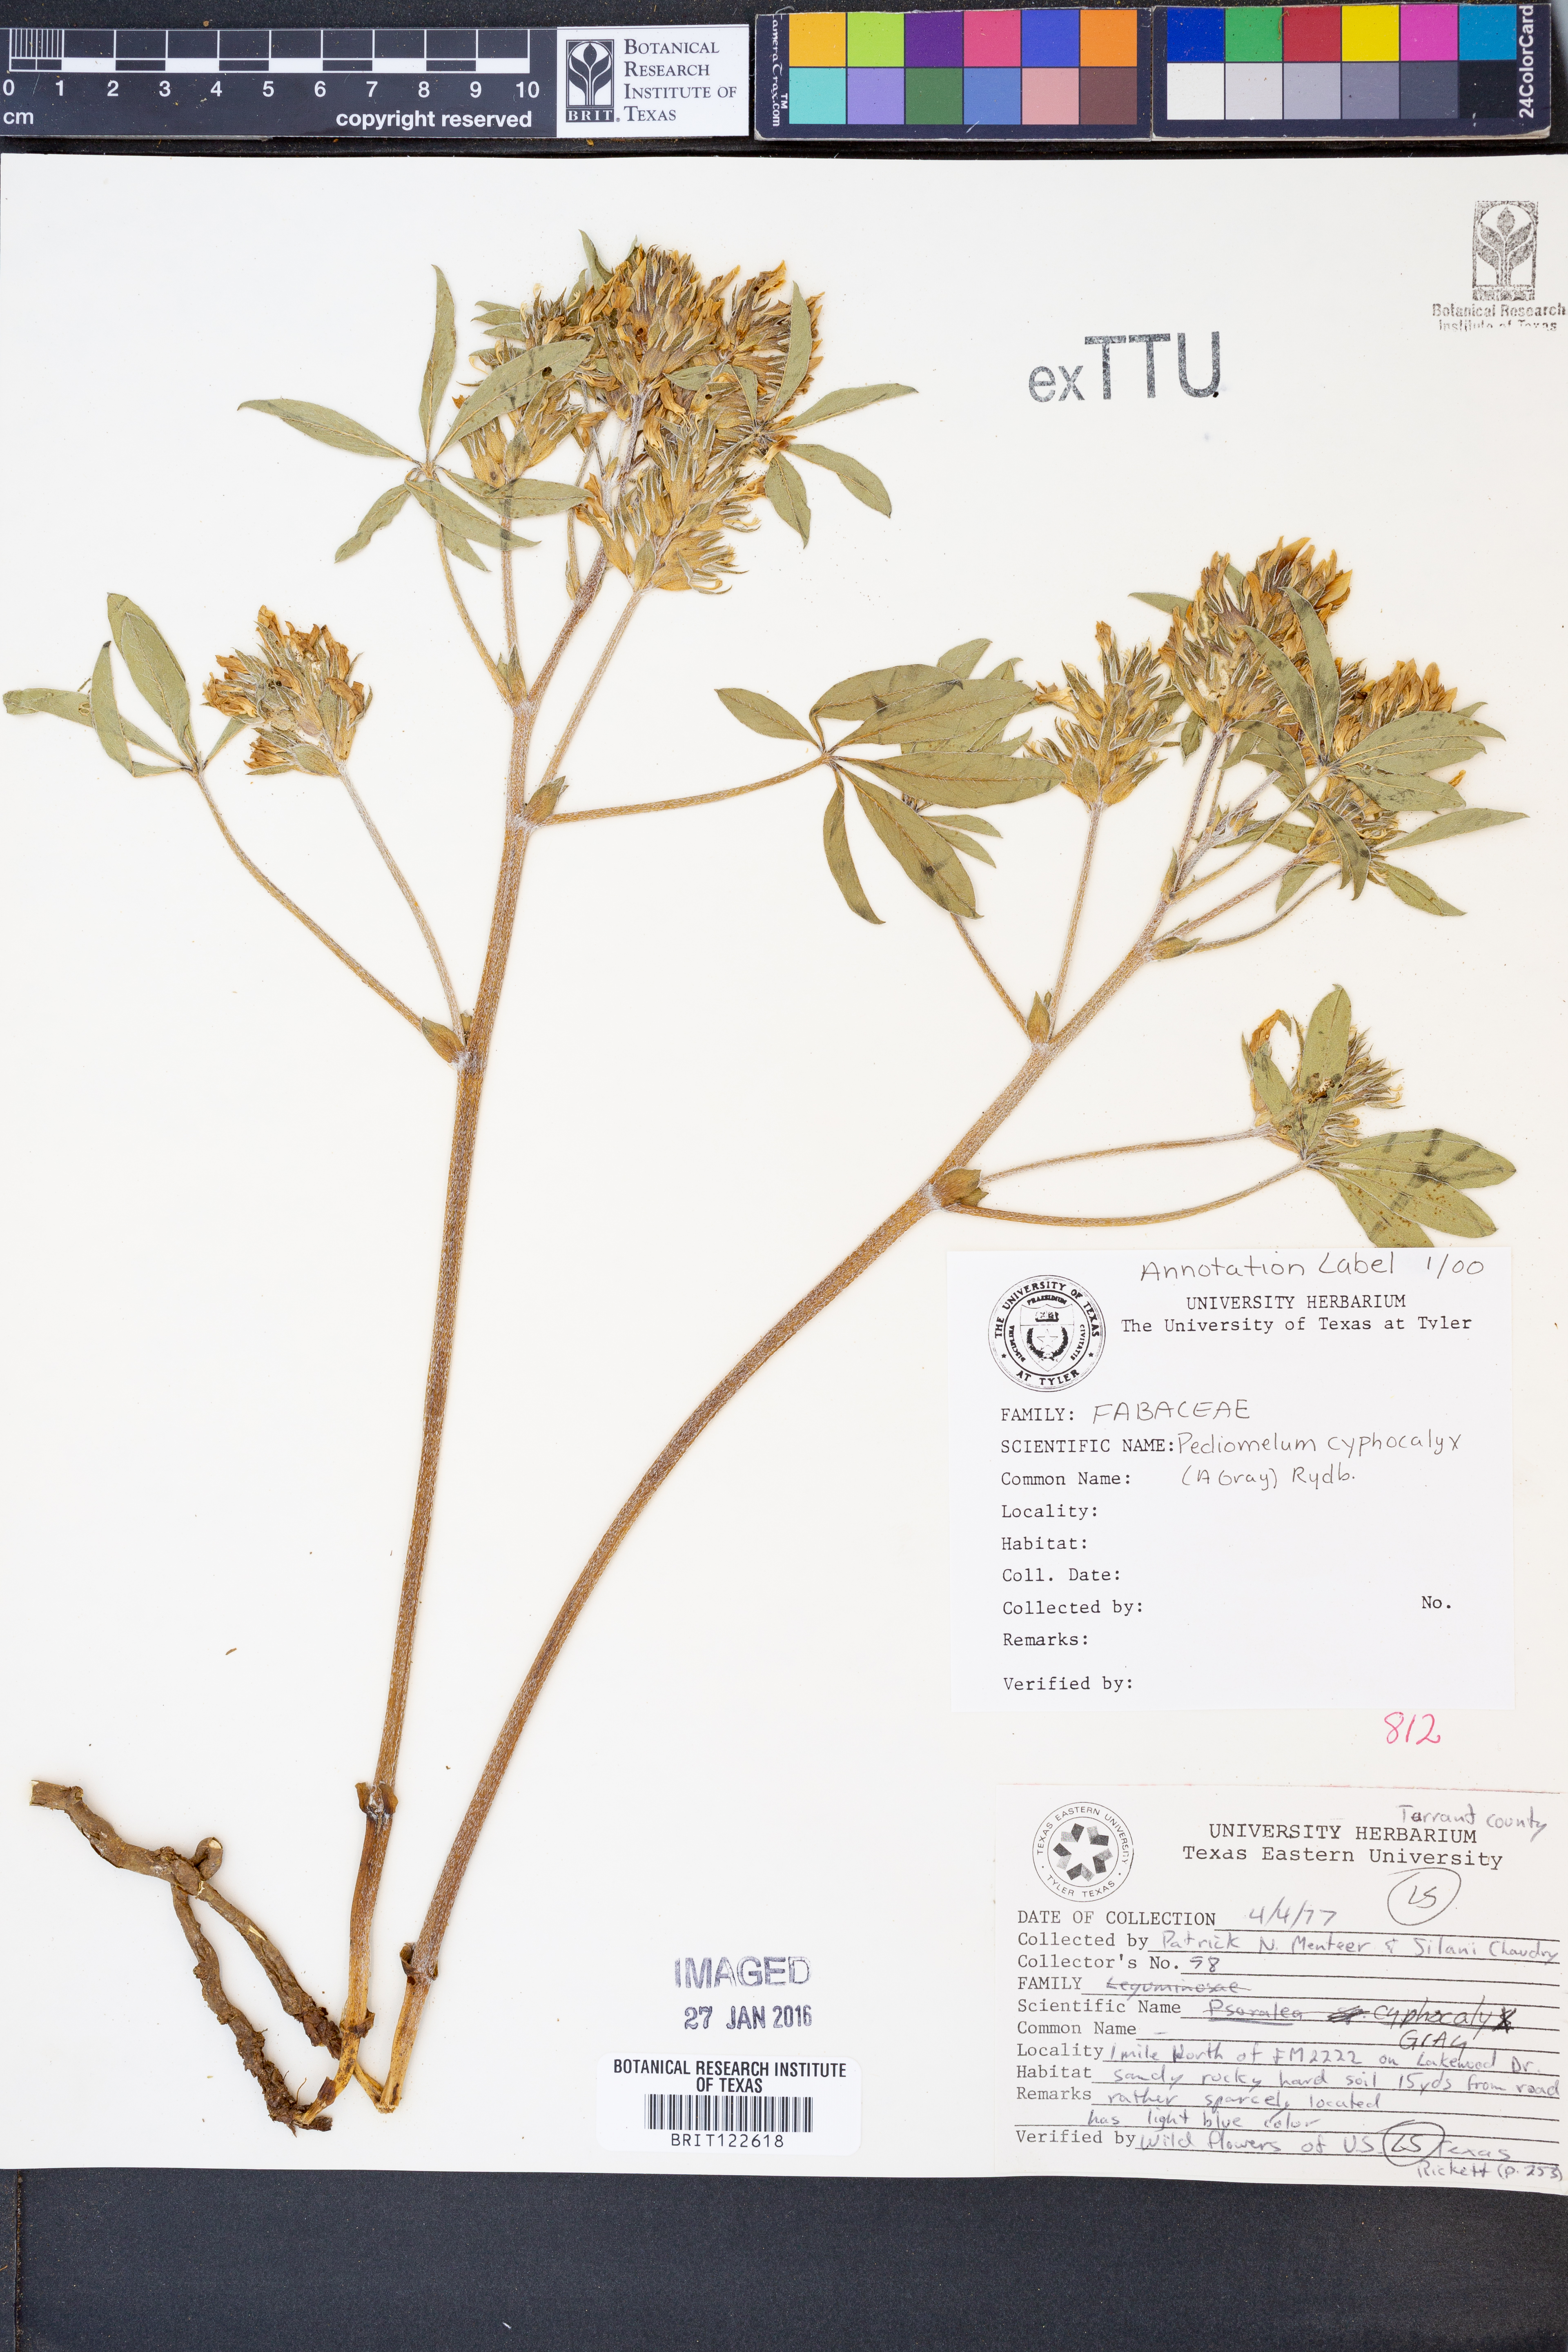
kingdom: Plantae
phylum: Tracheophyta
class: Magnoliopsida
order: Fabales
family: Fabaceae
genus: Pediomelum
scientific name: Pediomelum latestipulatum
